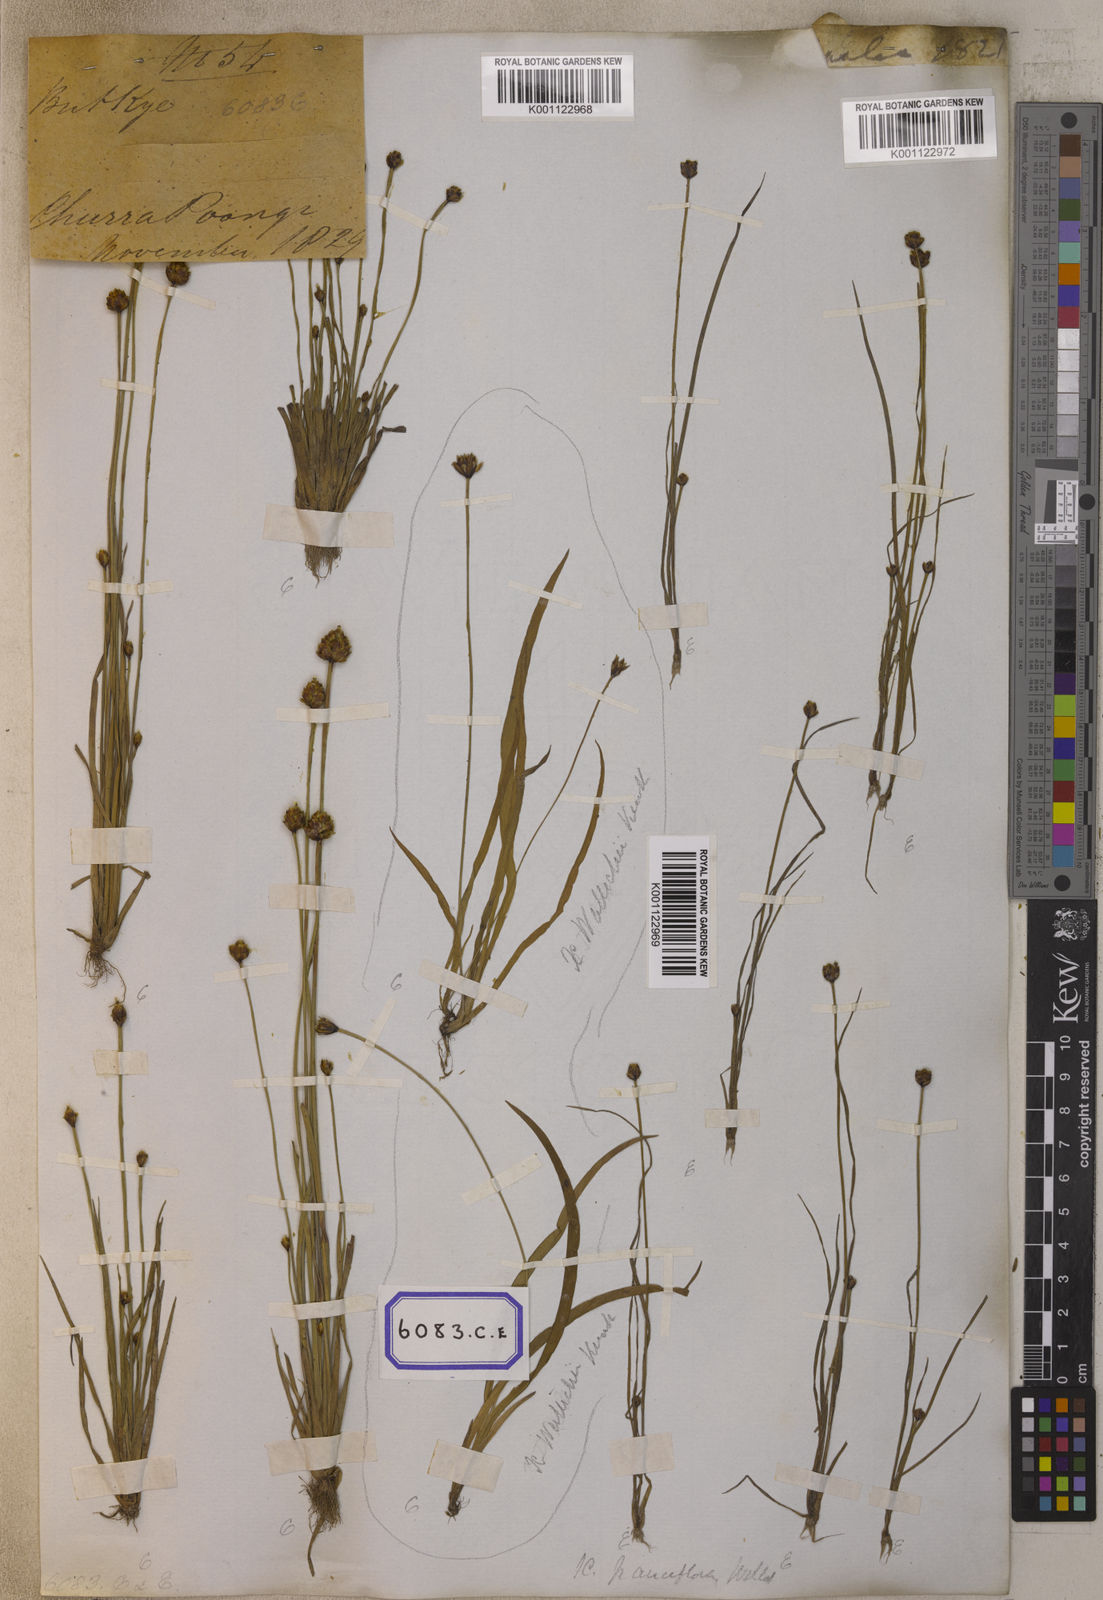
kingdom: Plantae
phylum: Tracheophyta
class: Liliopsida
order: Poales
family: Xyridaceae
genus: Xyris
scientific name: Xyris pauciflora
